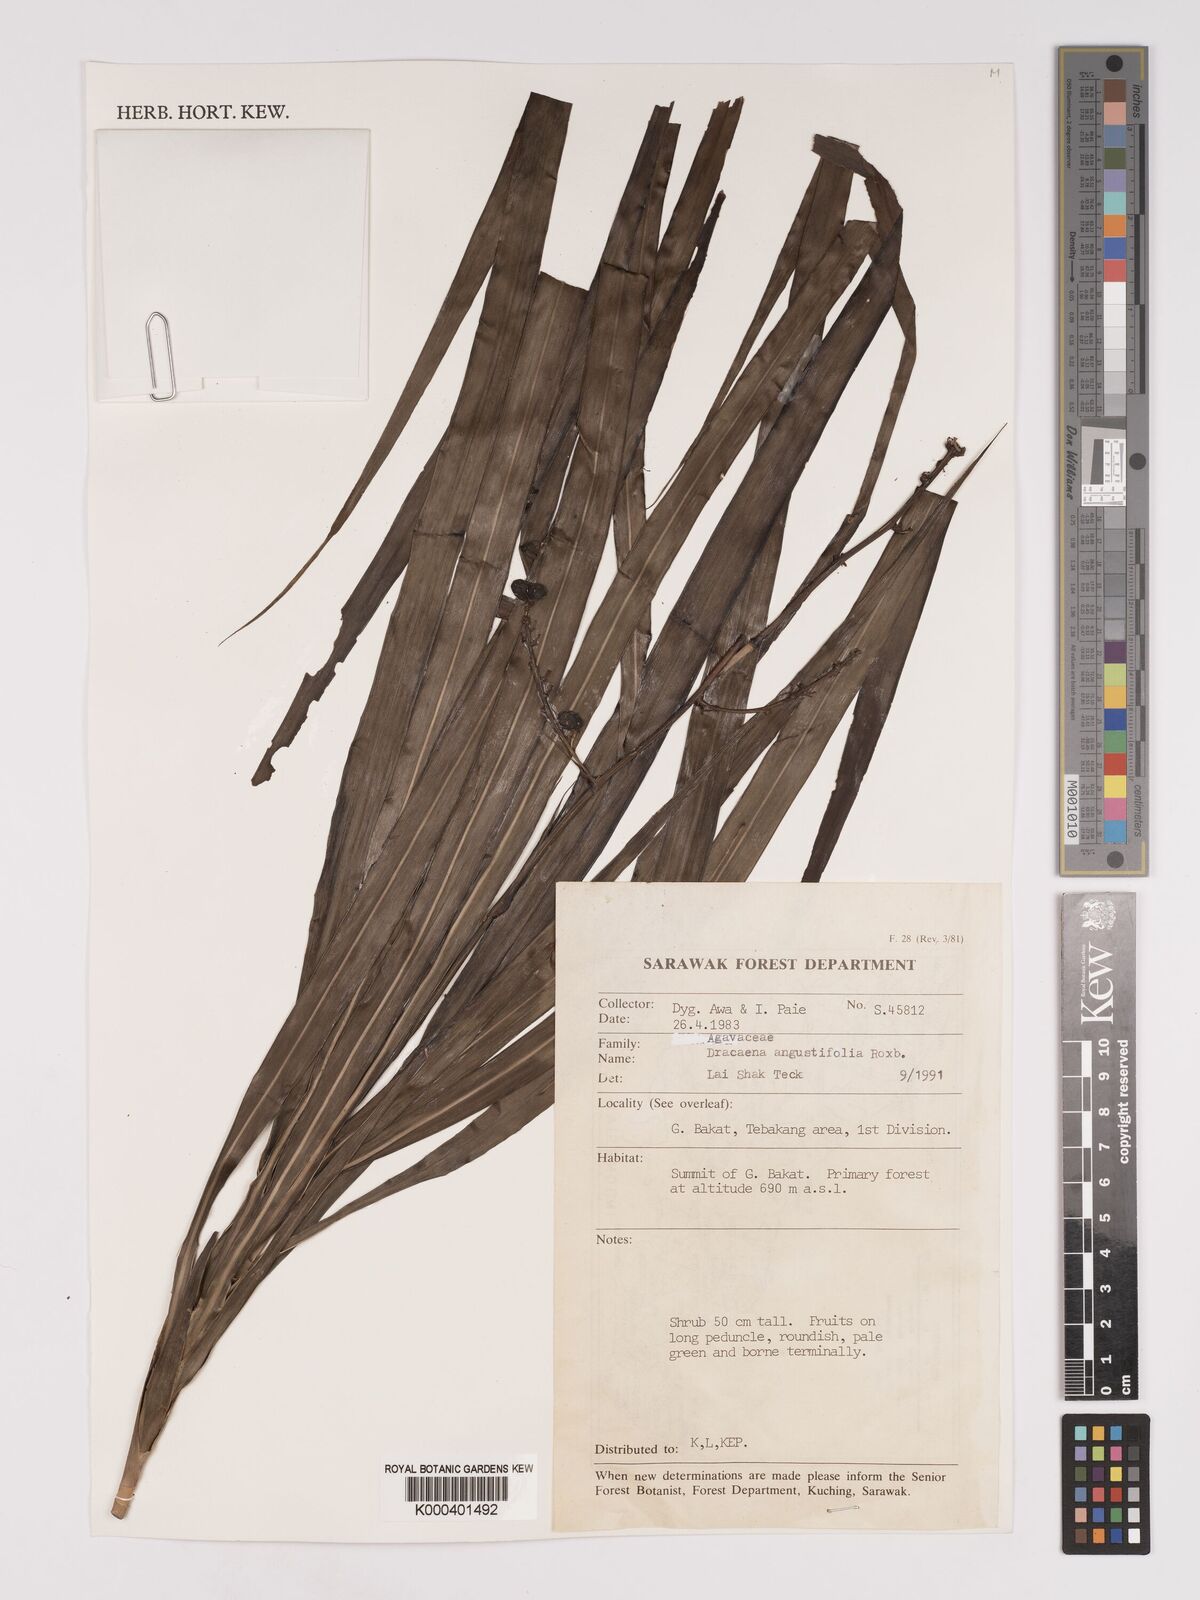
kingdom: Plantae
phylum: Tracheophyta
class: Liliopsida
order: Asparagales
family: Asparagaceae
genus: Dracaena
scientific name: Dracaena angustifolia
